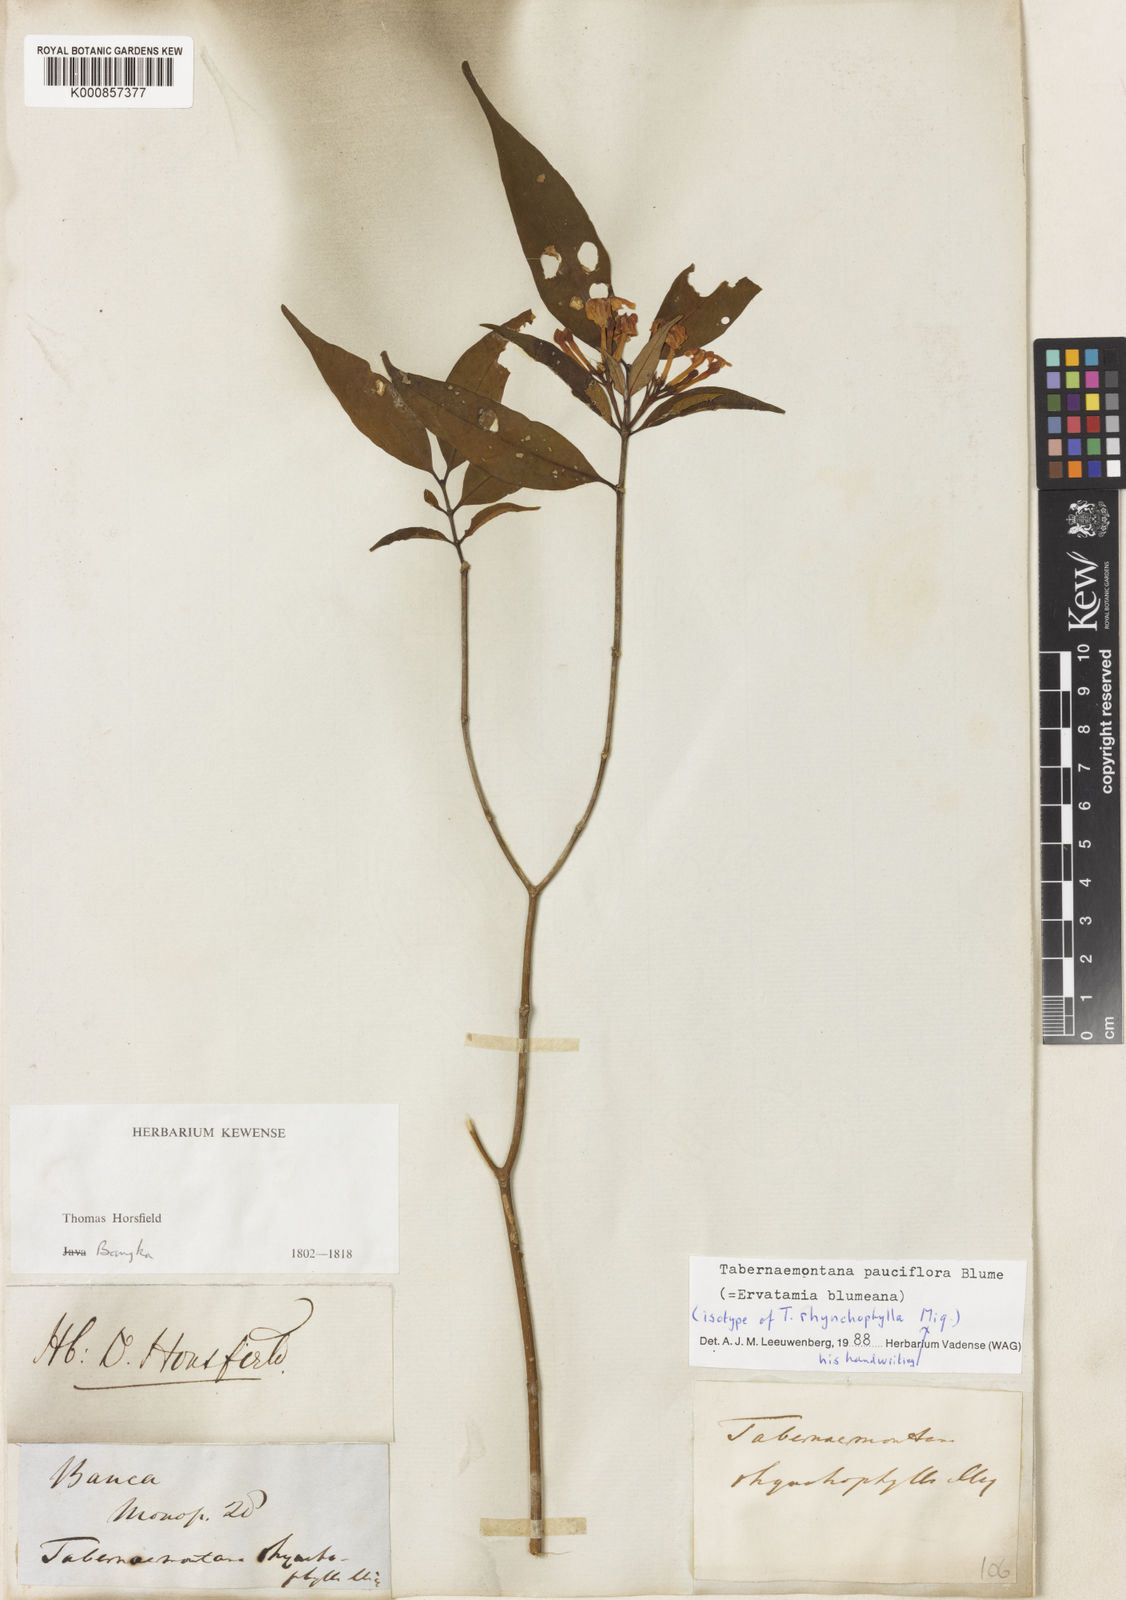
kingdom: Plantae
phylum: Tracheophyta
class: Magnoliopsida
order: Gentianales
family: Apocynaceae
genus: Tabernaemontana
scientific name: Tabernaemontana pauciflora
